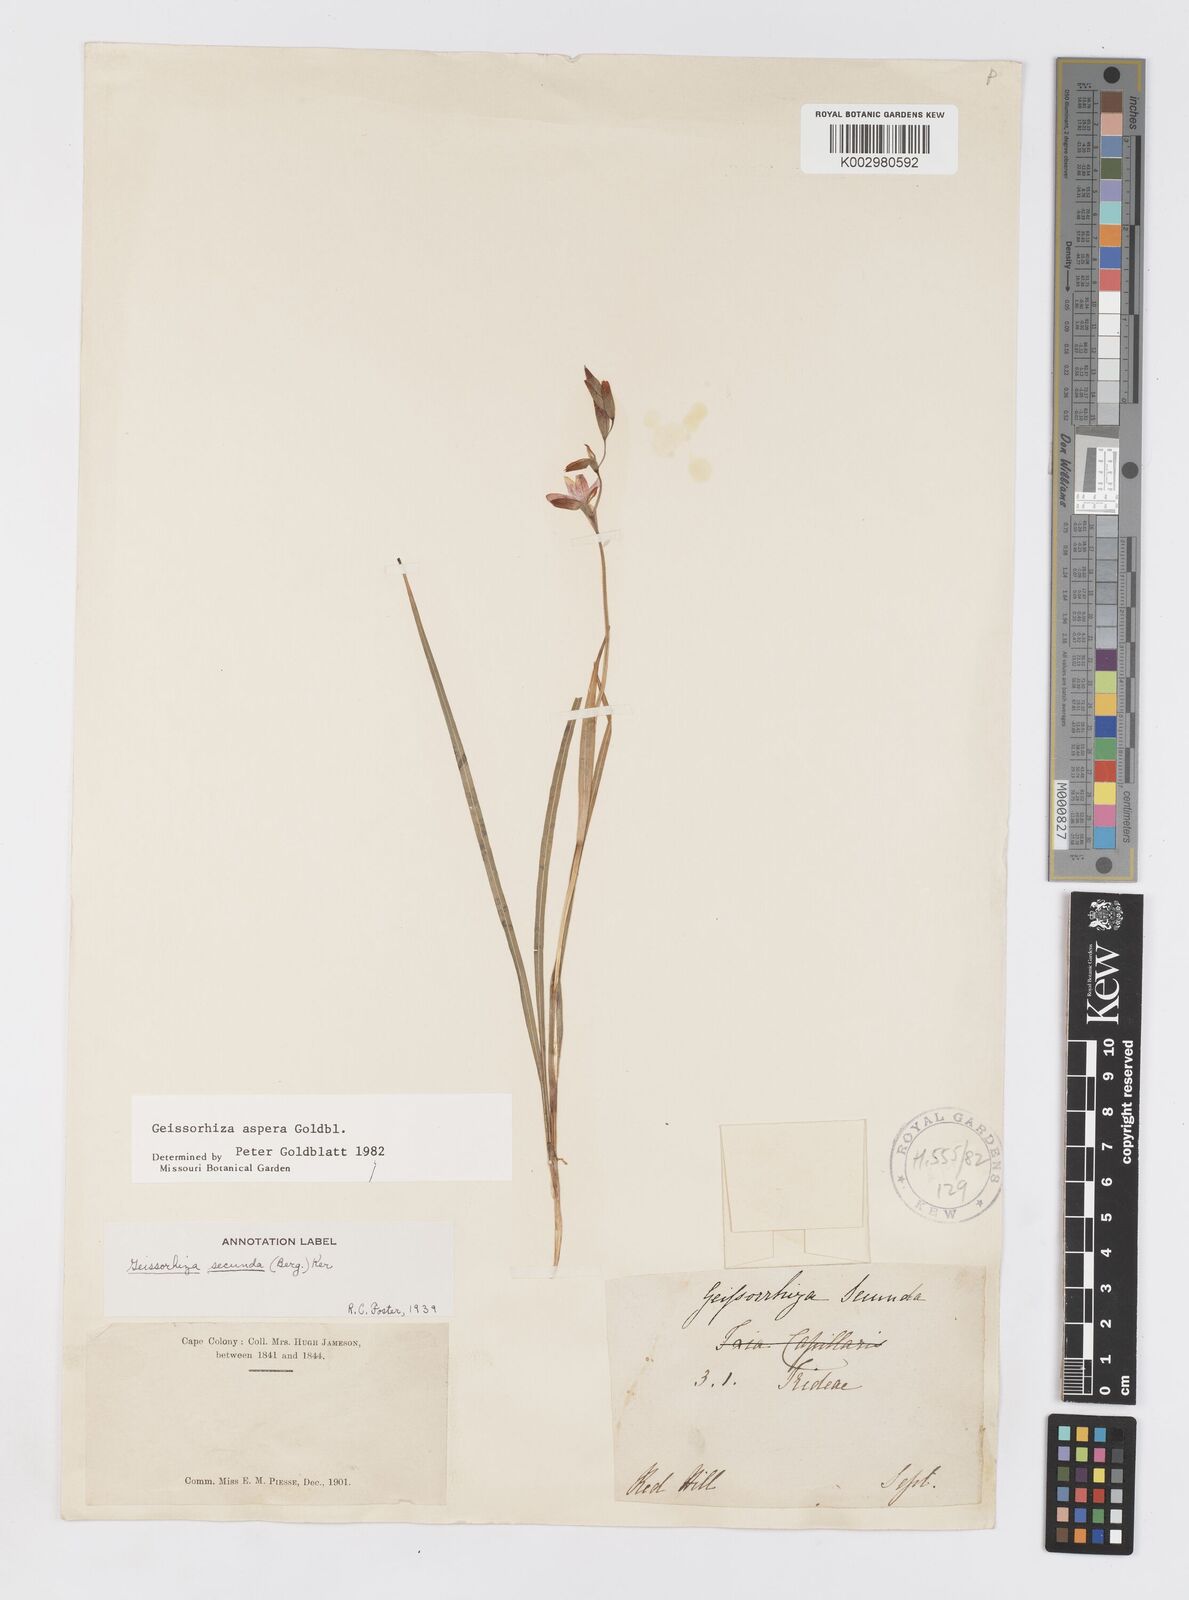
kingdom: Plantae
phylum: Tracheophyta
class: Liliopsida
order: Asparagales
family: Iridaceae
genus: Geissorhiza
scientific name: Geissorhiza aspera
